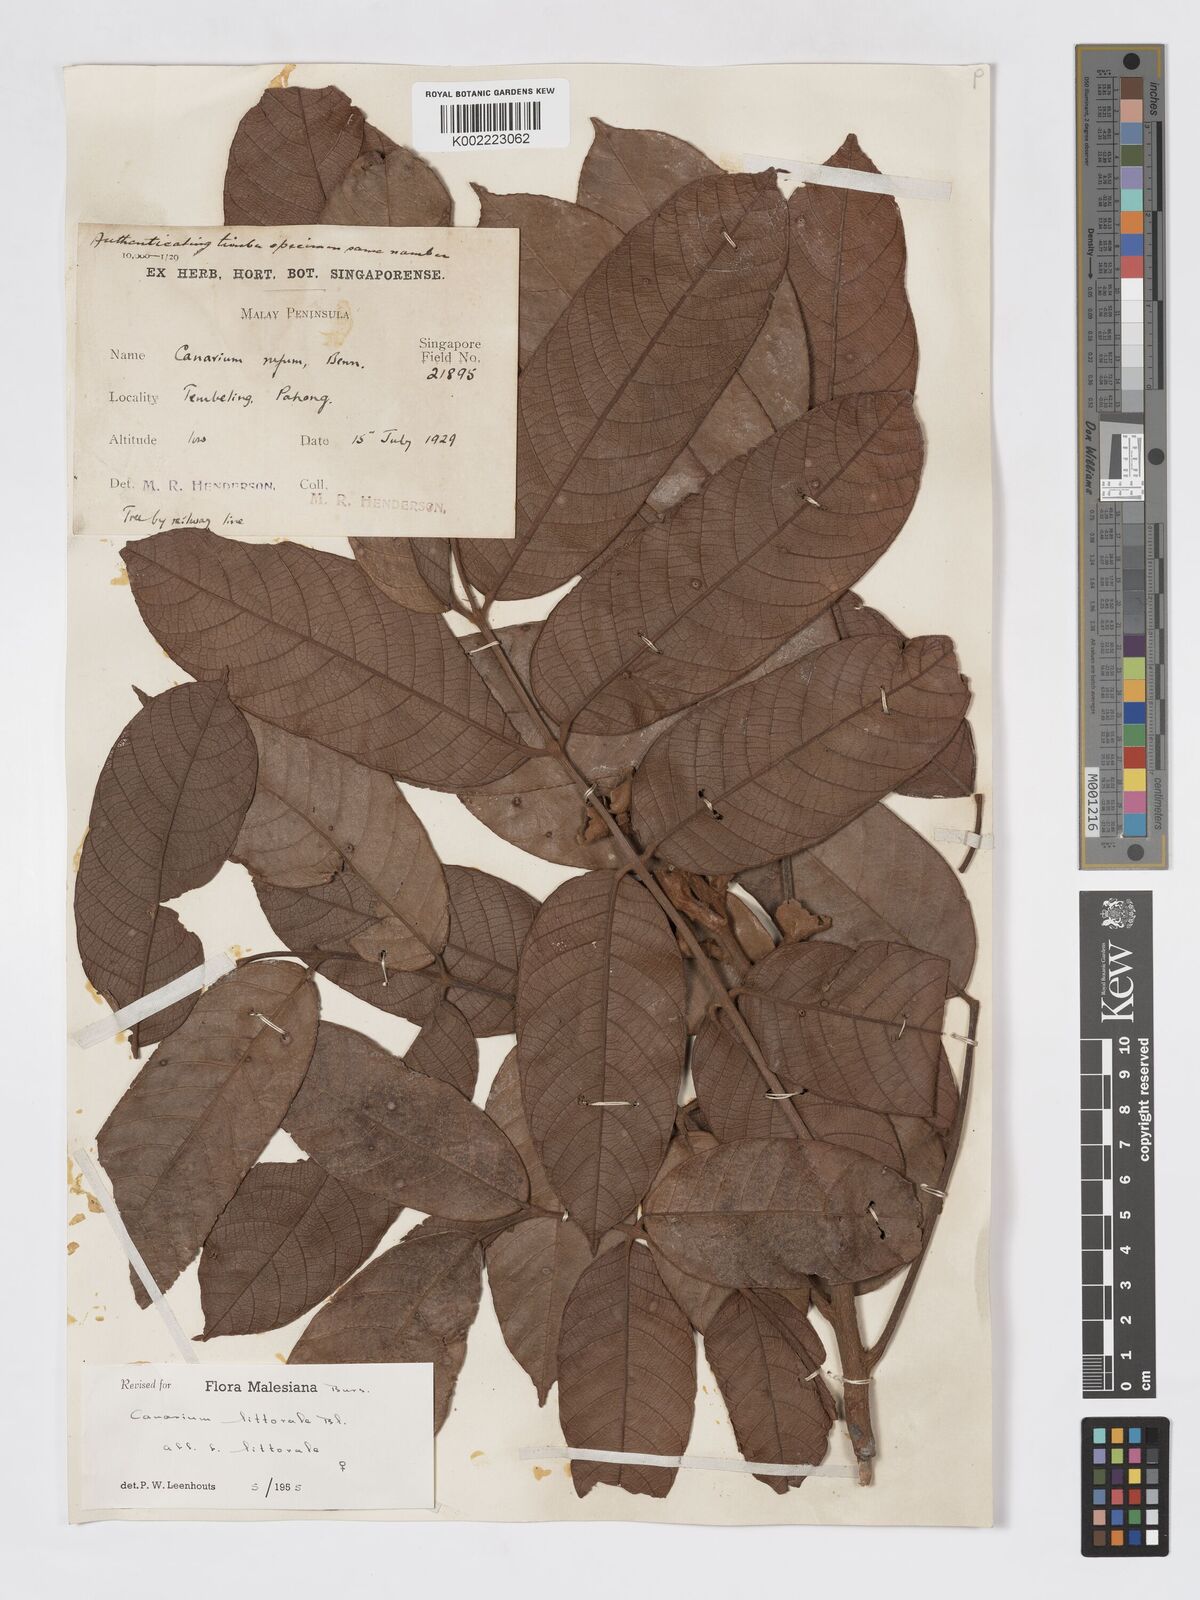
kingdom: Plantae
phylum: Tracheophyta
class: Magnoliopsida
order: Sapindales
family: Burseraceae
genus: Canarium
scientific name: Canarium littorale
